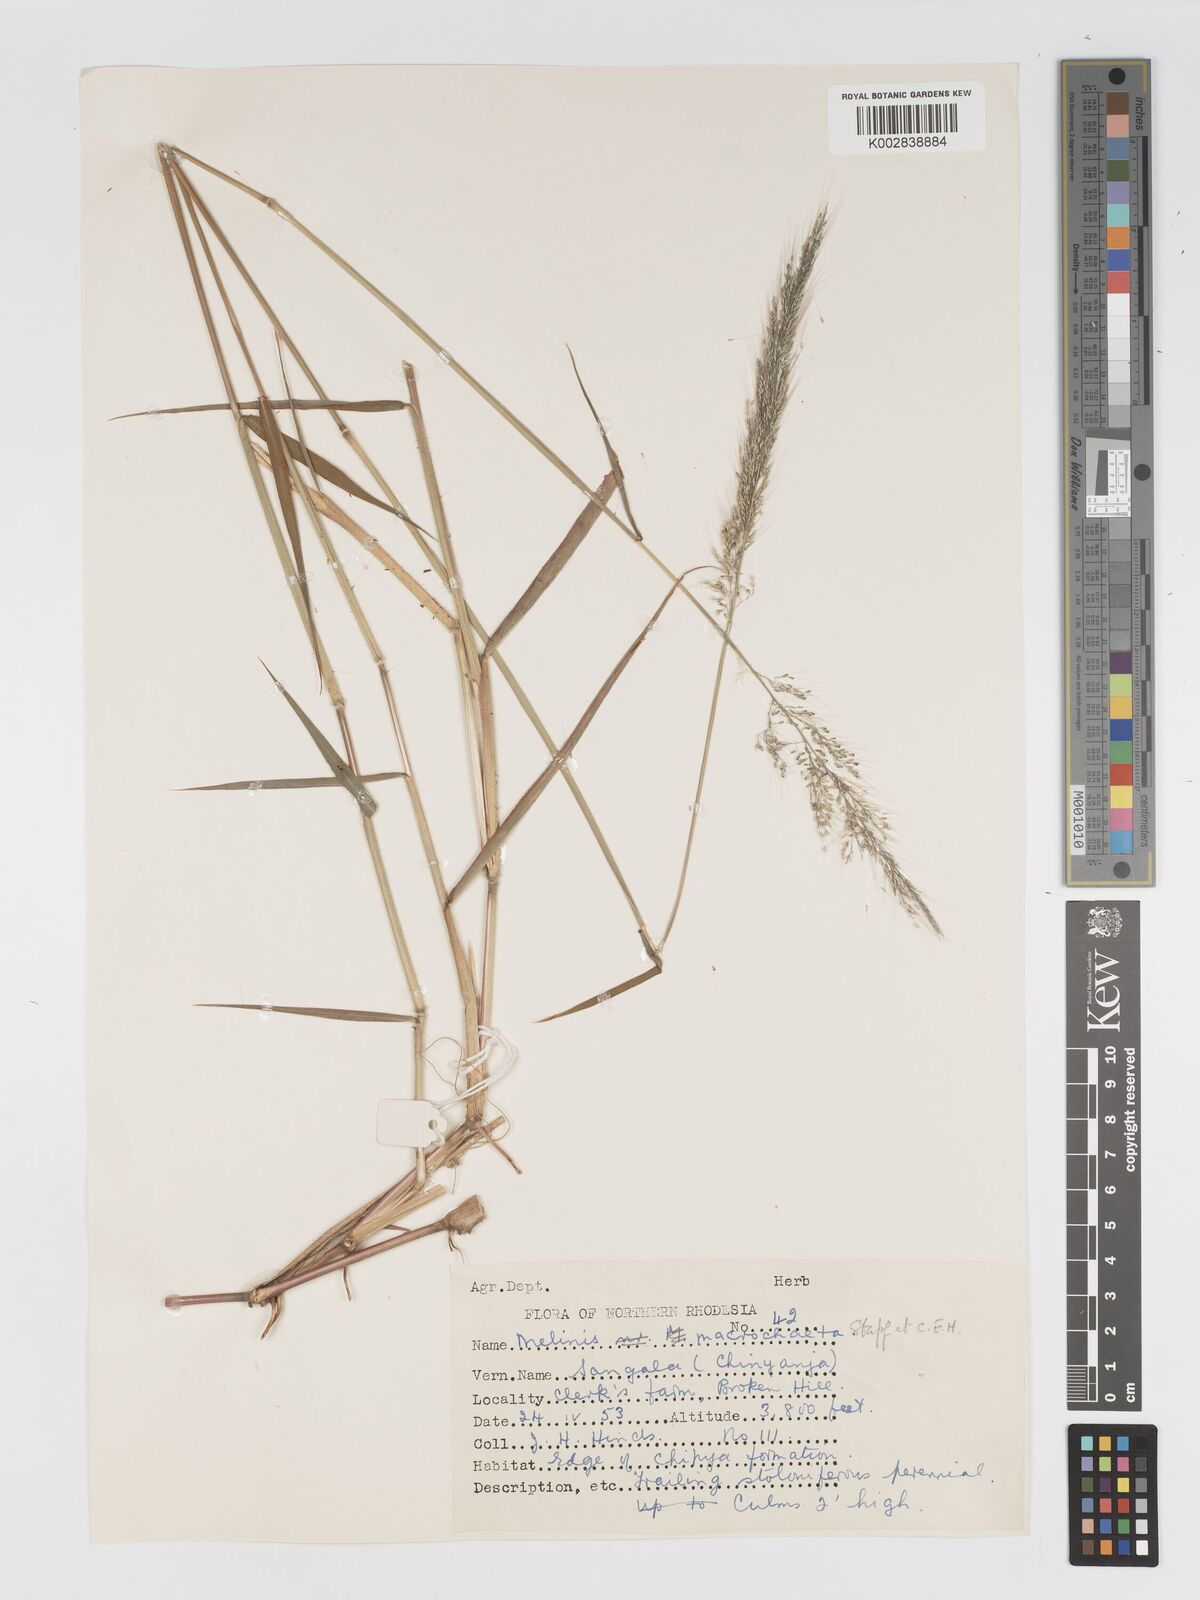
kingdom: Plantae
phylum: Tracheophyta
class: Liliopsida
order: Poales
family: Poaceae
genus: Melinis
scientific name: Melinis macrochaeta
